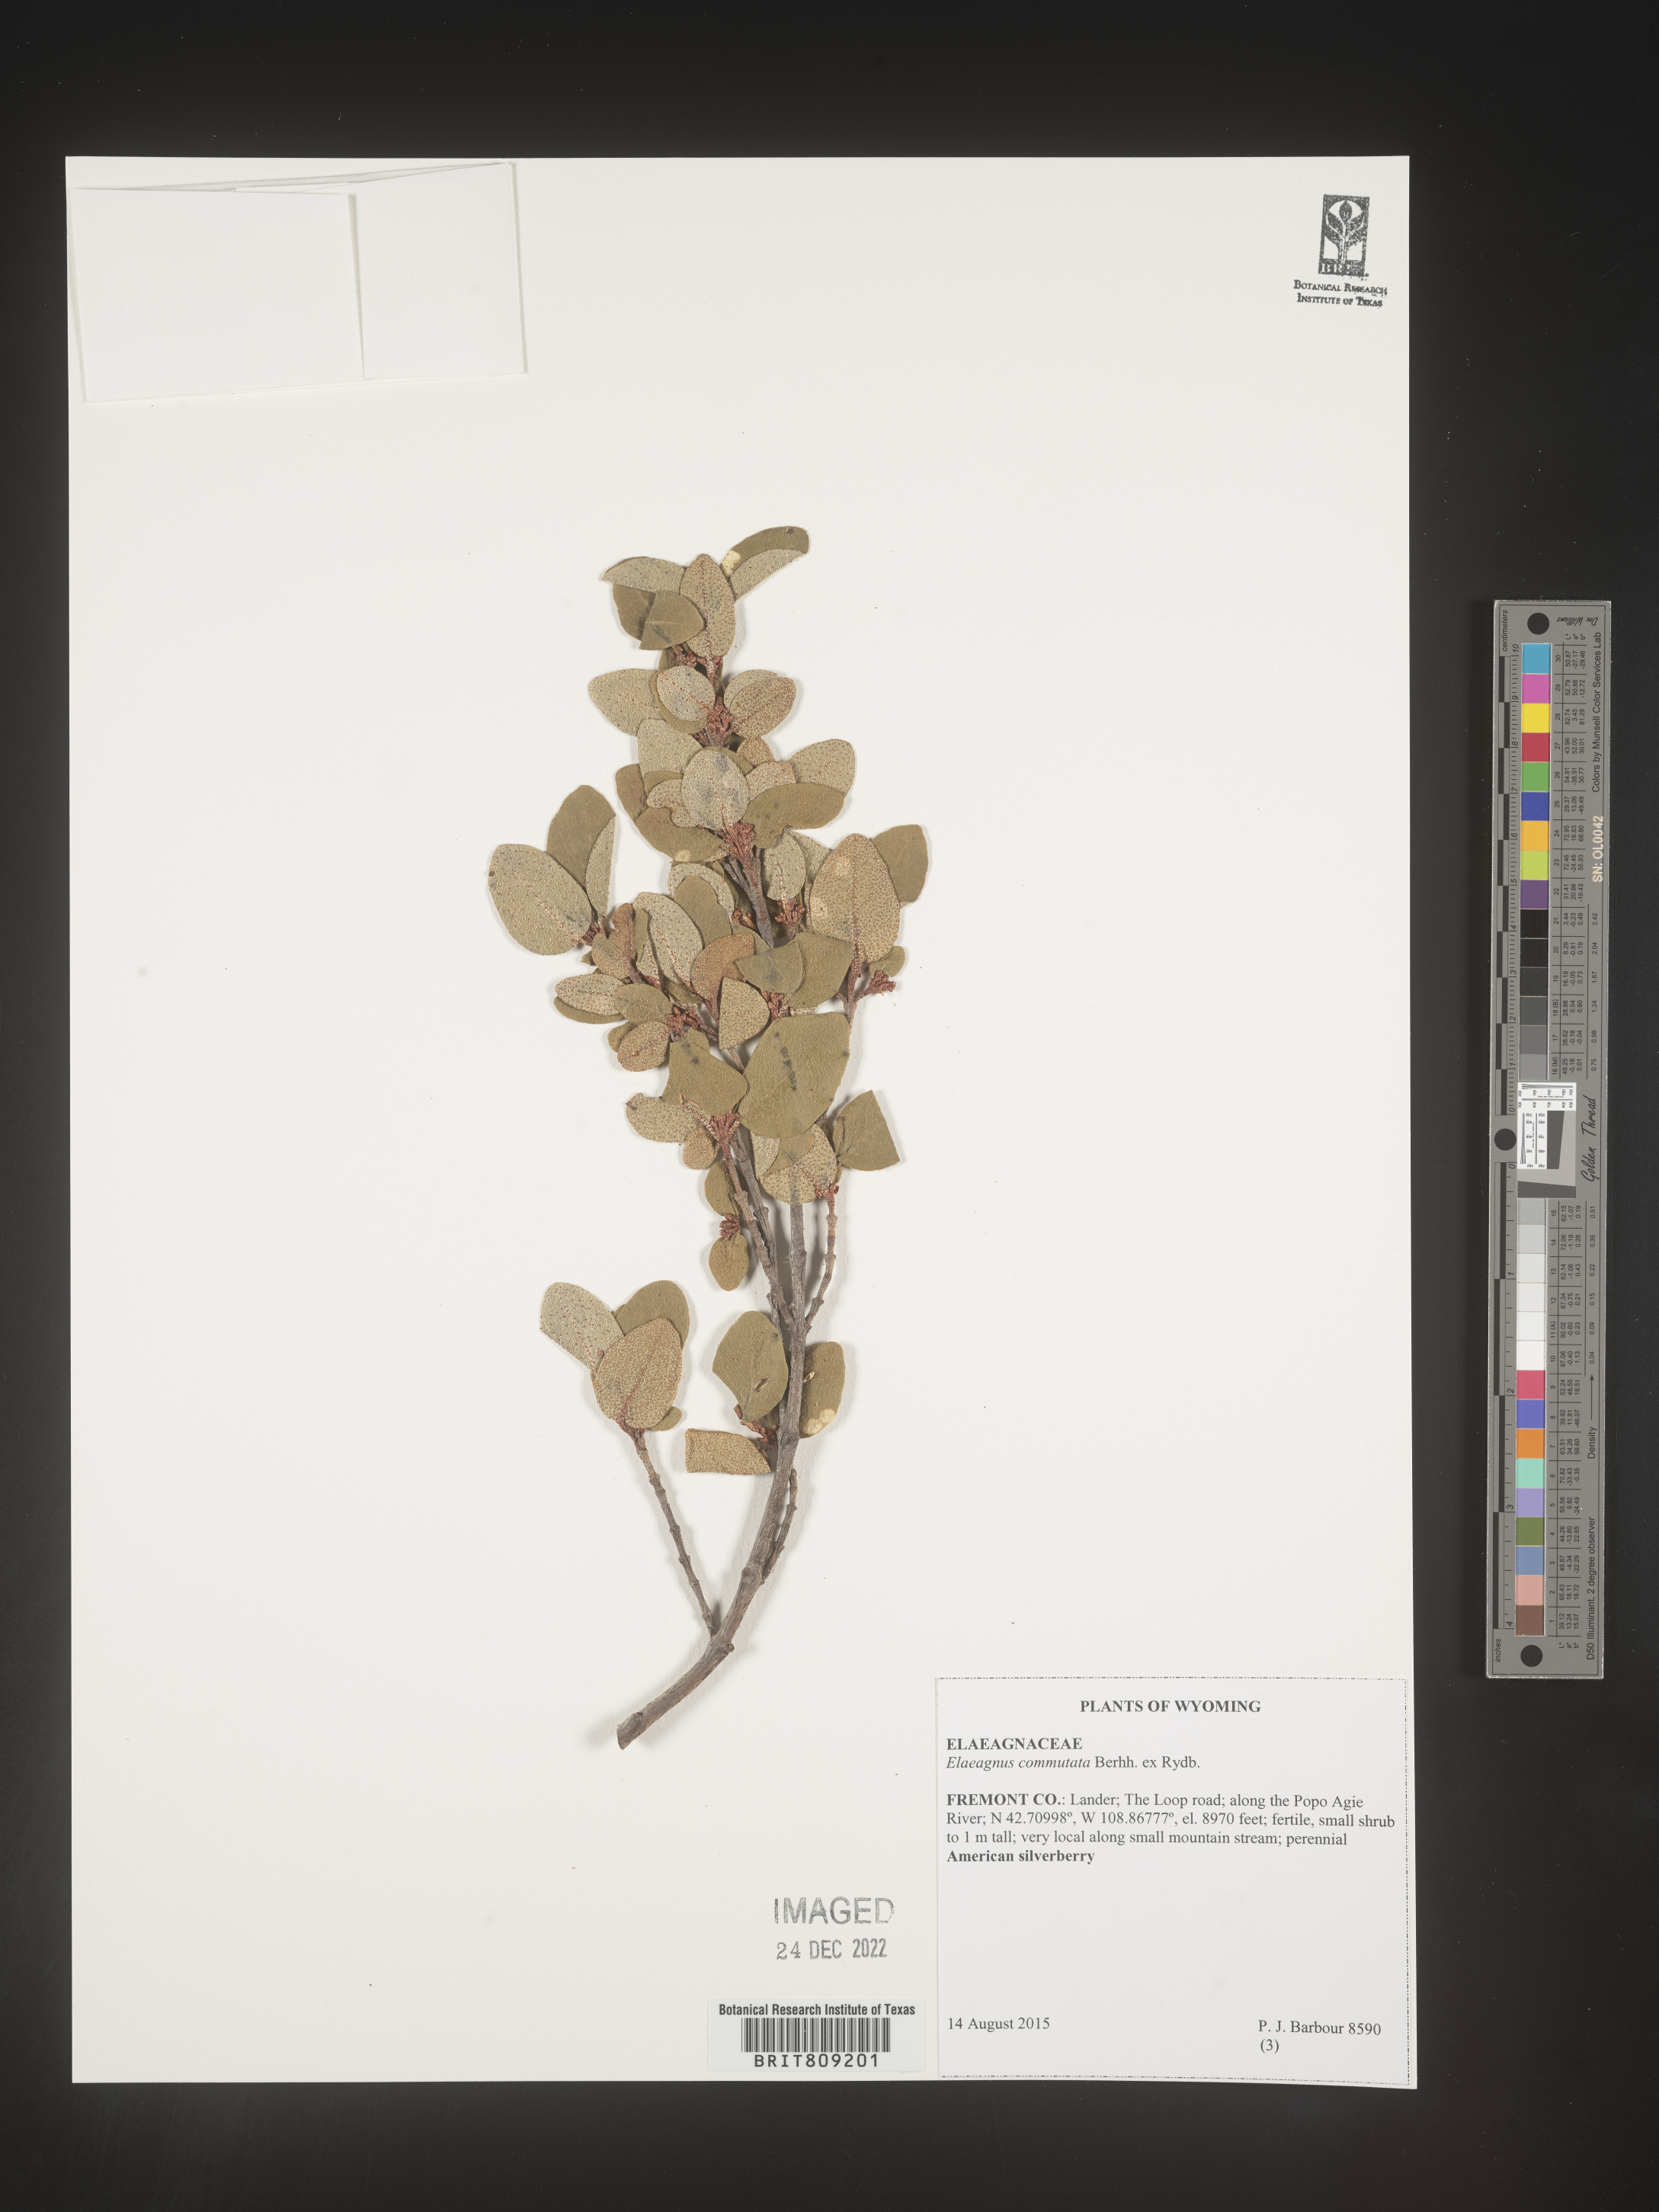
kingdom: Plantae
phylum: Tracheophyta
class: Magnoliopsida
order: Rosales
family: Elaeagnaceae
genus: Elaeagnus
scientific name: Elaeagnus
